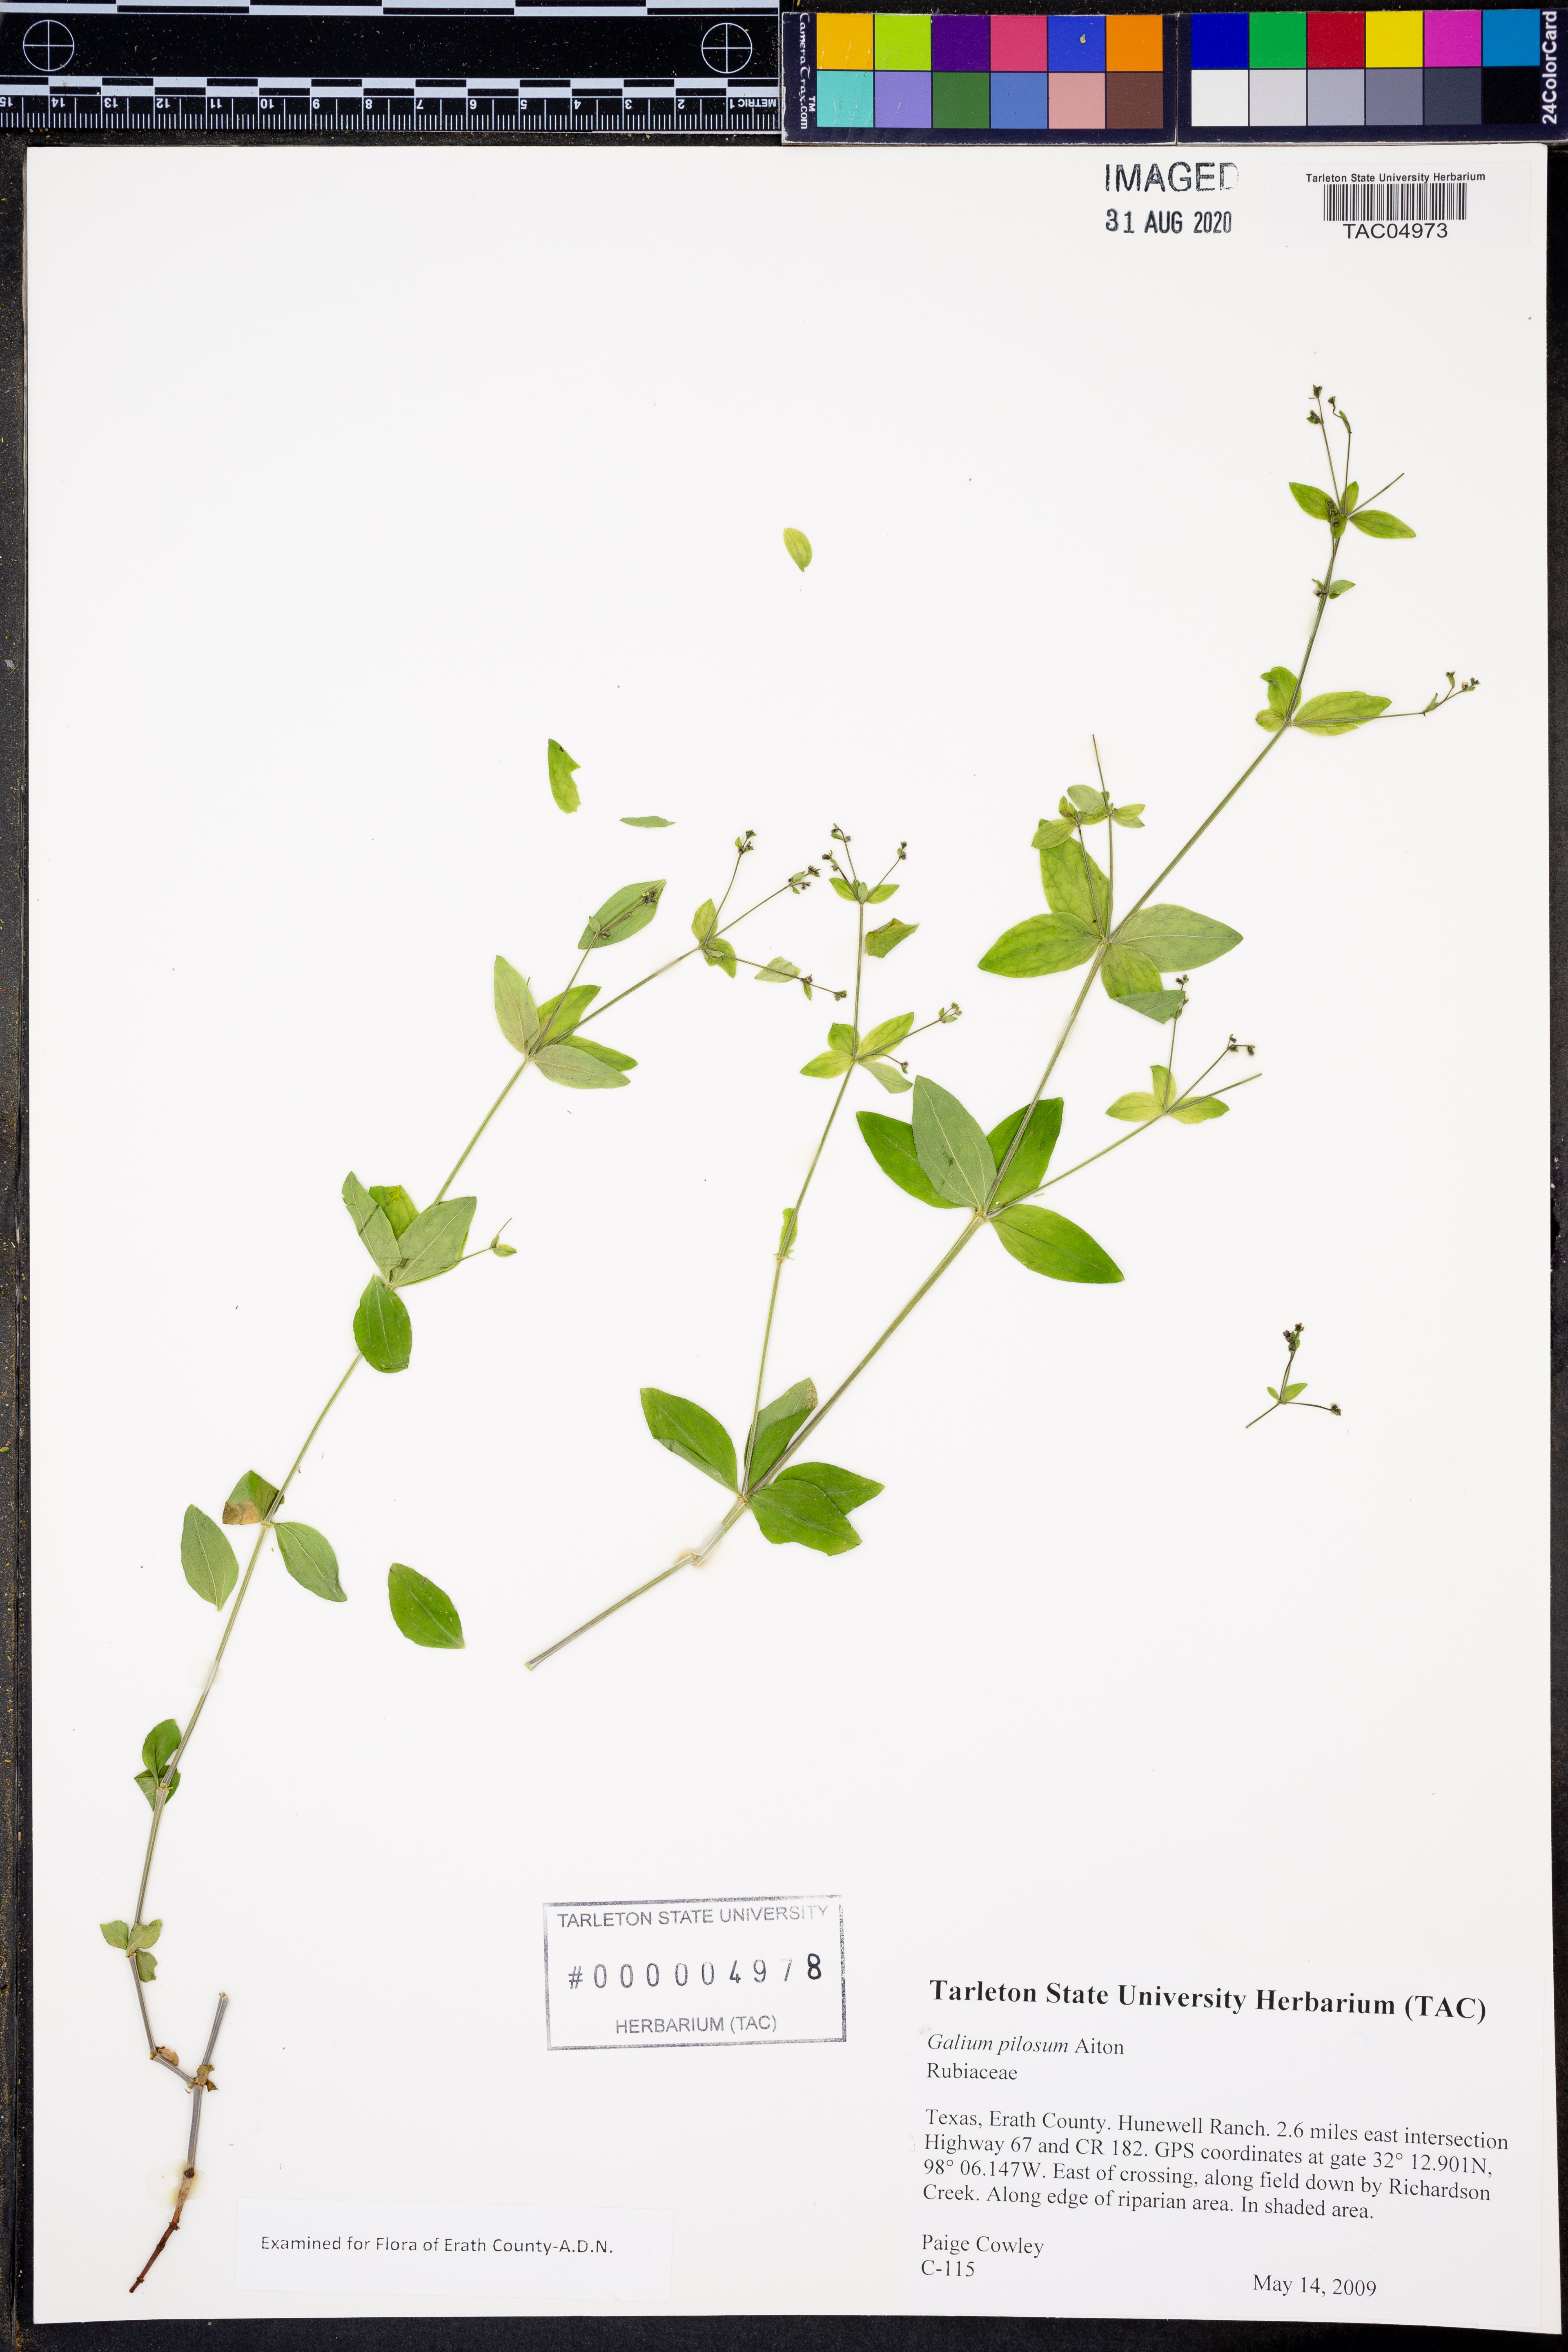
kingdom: Plantae
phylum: Tracheophyta
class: Magnoliopsida
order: Gentianales
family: Rubiaceae
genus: Galium
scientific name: Galium pilosum
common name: Hairy bedstraw
